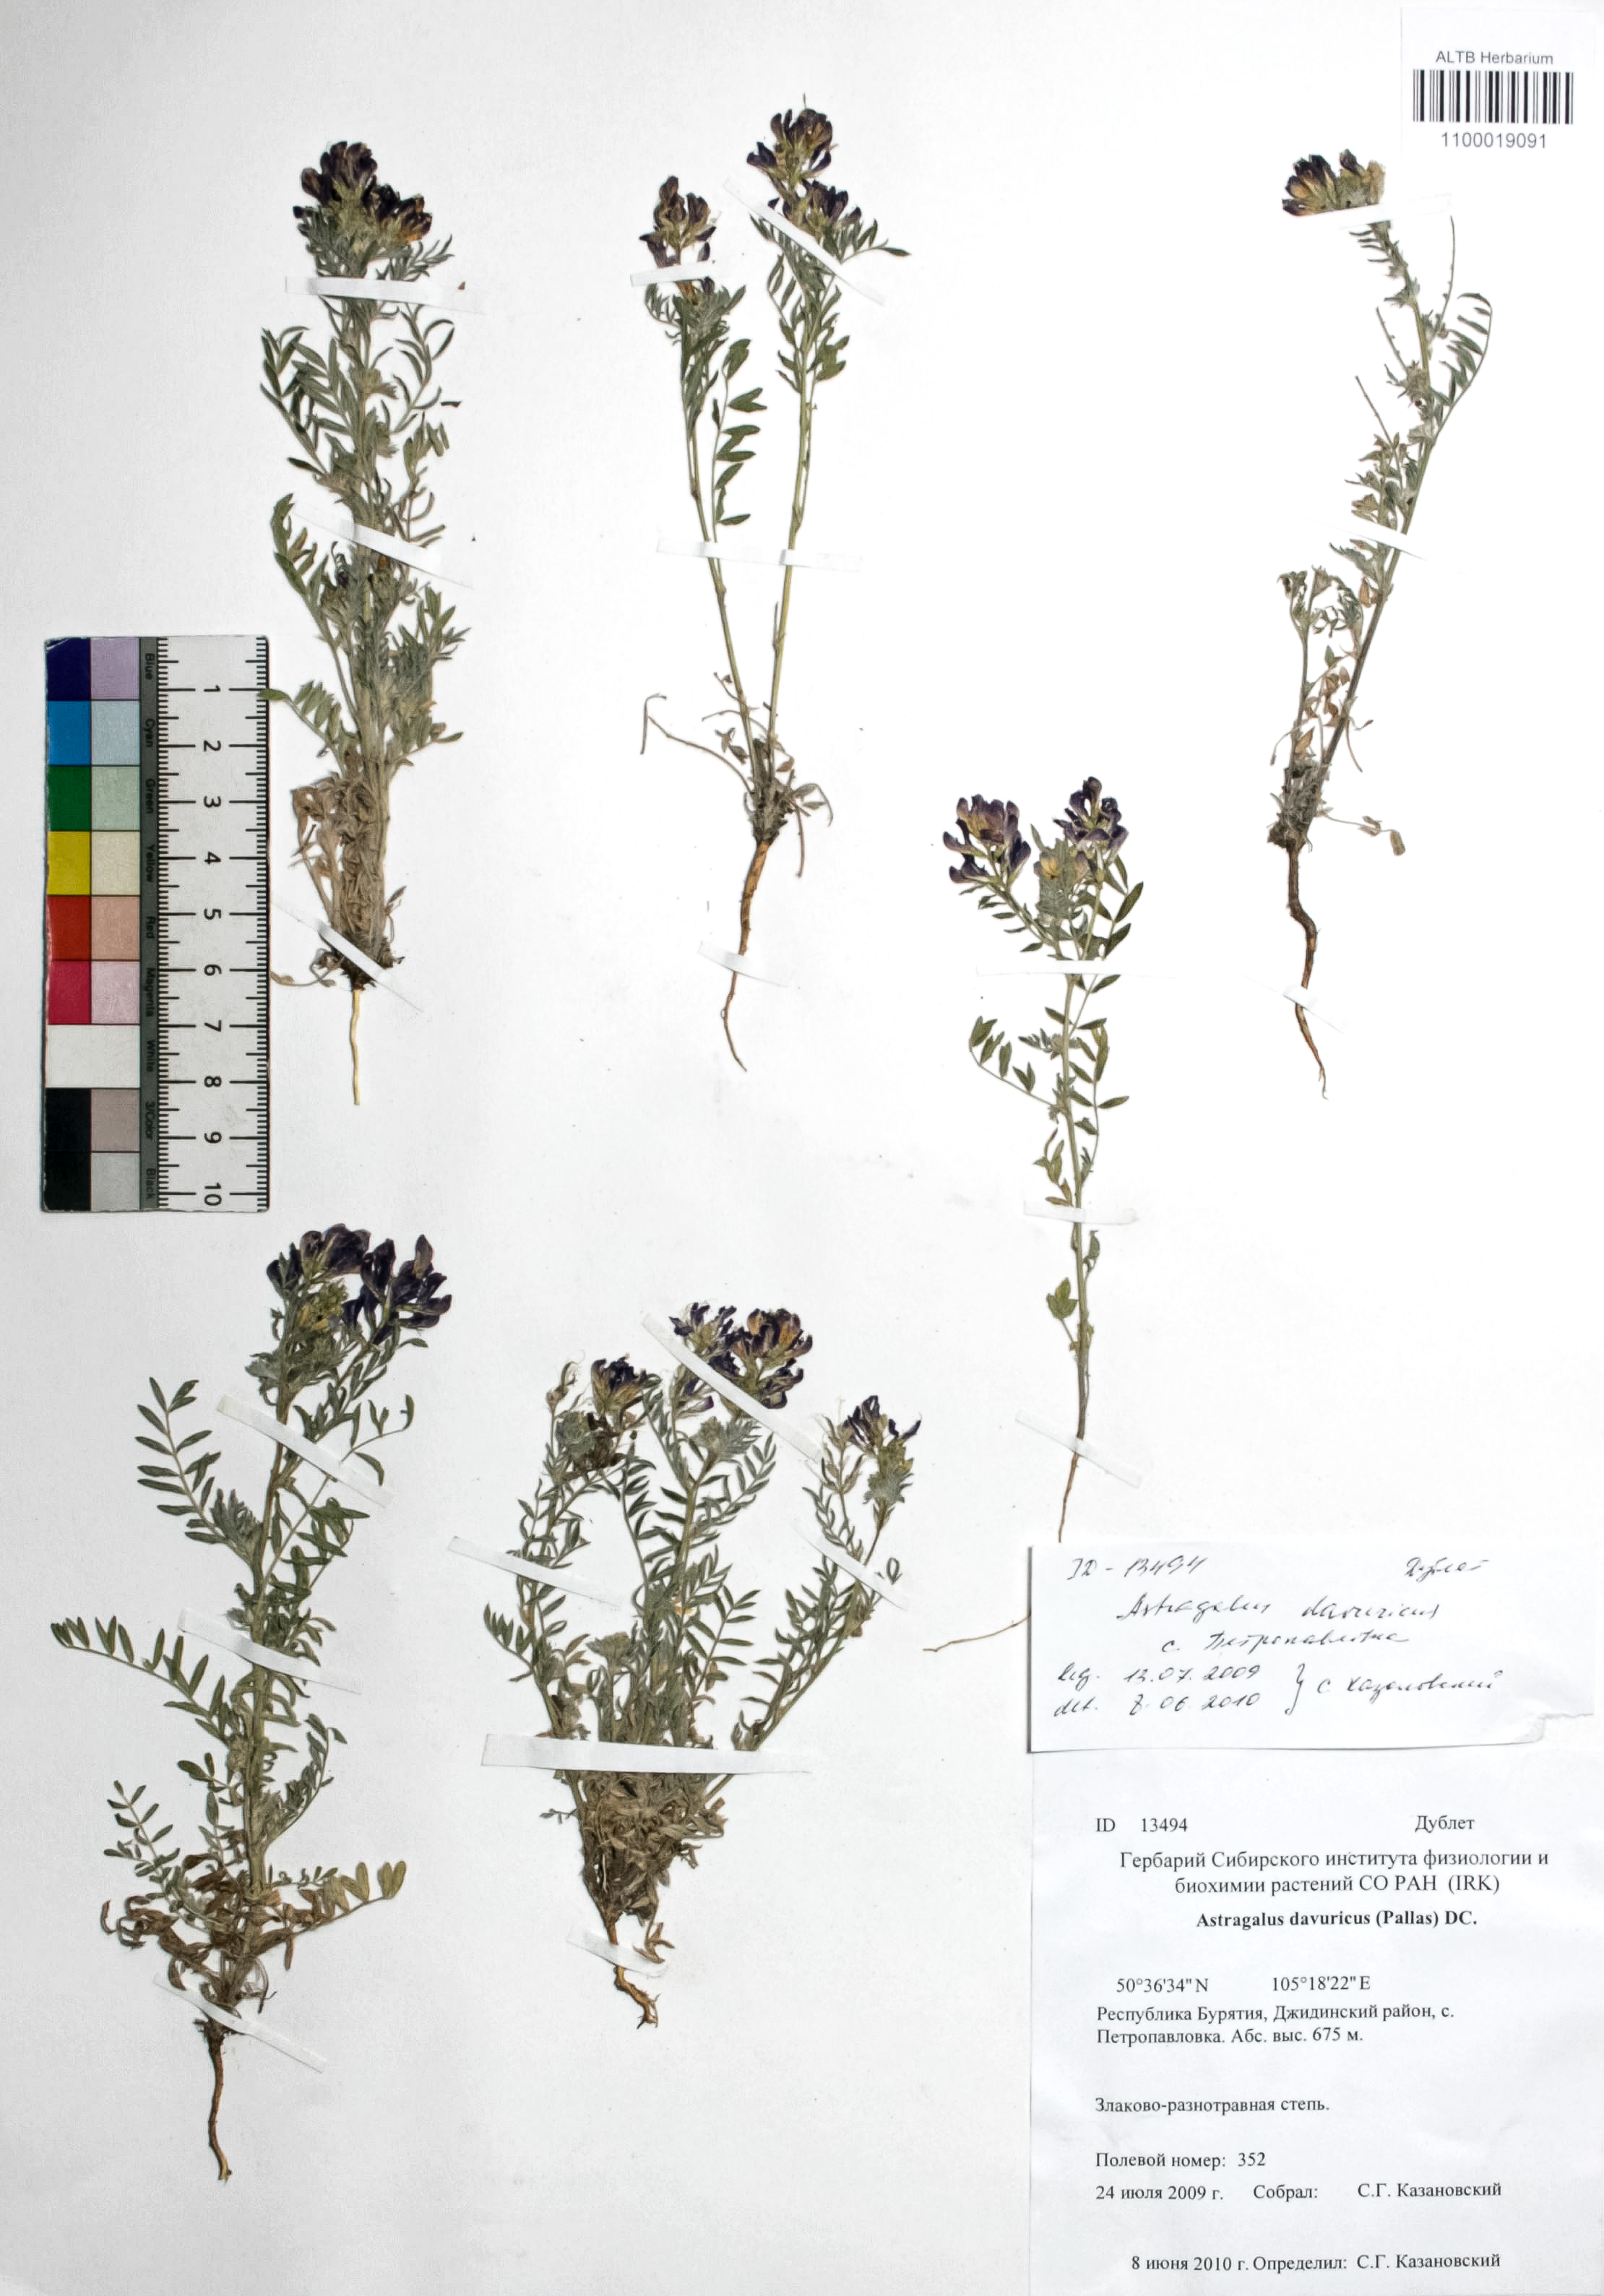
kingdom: Plantae
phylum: Tracheophyta
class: Magnoliopsida
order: Fabales
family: Fabaceae
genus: Astragalus
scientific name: Astragalus davuricus
